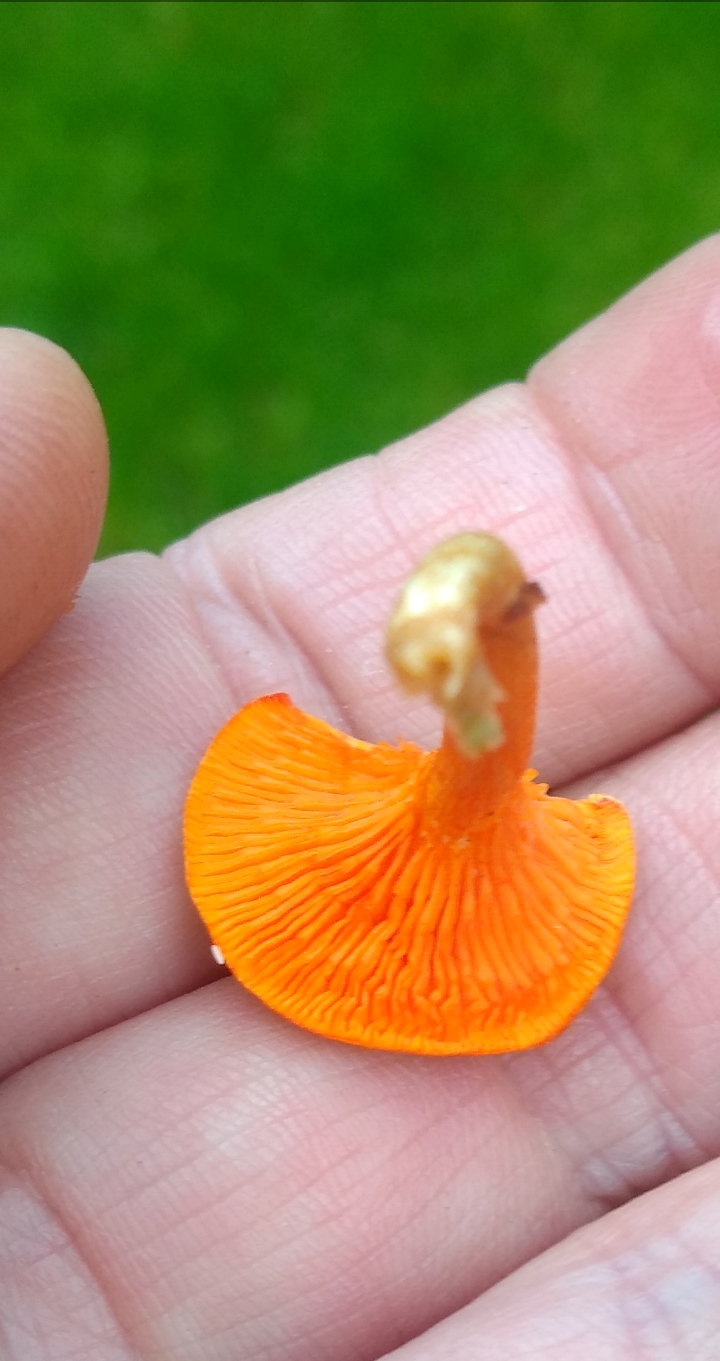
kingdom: Fungi
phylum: Basidiomycota
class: Agaricomycetes
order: Boletales
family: Hygrophoropsidaceae
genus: Hygrophoropsis
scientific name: Hygrophoropsis aurantiaca
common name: almindelig orangekantarel
